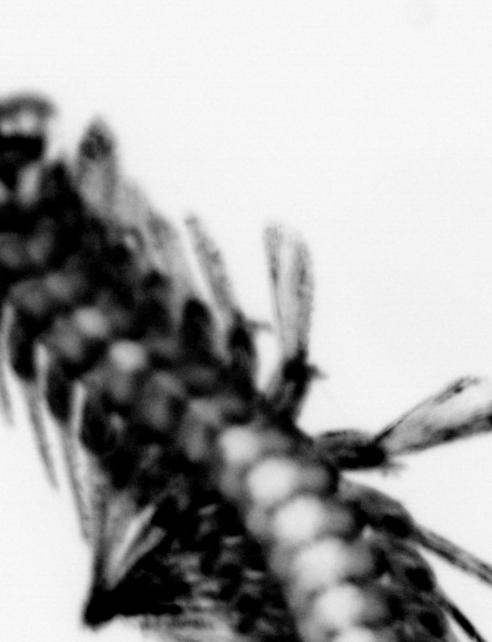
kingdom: Animalia
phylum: Annelida
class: Polychaeta
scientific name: Polychaeta
